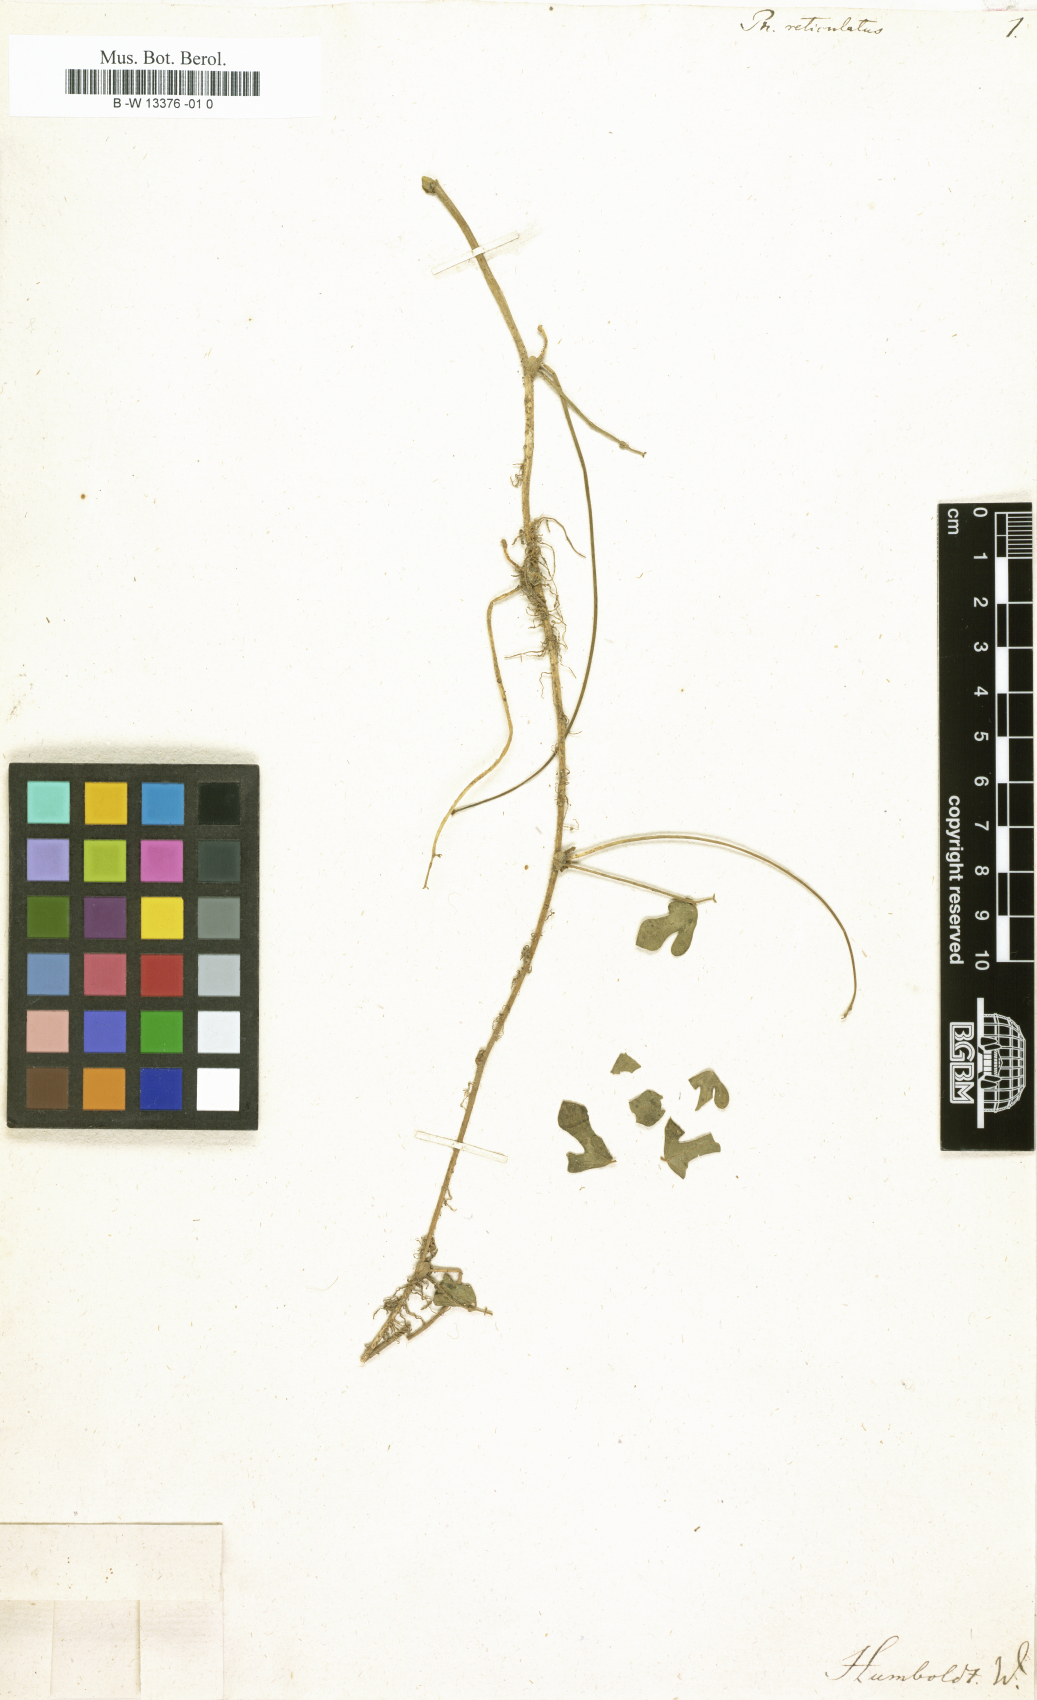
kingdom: Plantae
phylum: Tracheophyta
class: Magnoliopsida
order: Fabales
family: Fabaceae
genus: Phaseolus
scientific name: Phaseolus reticulatus
